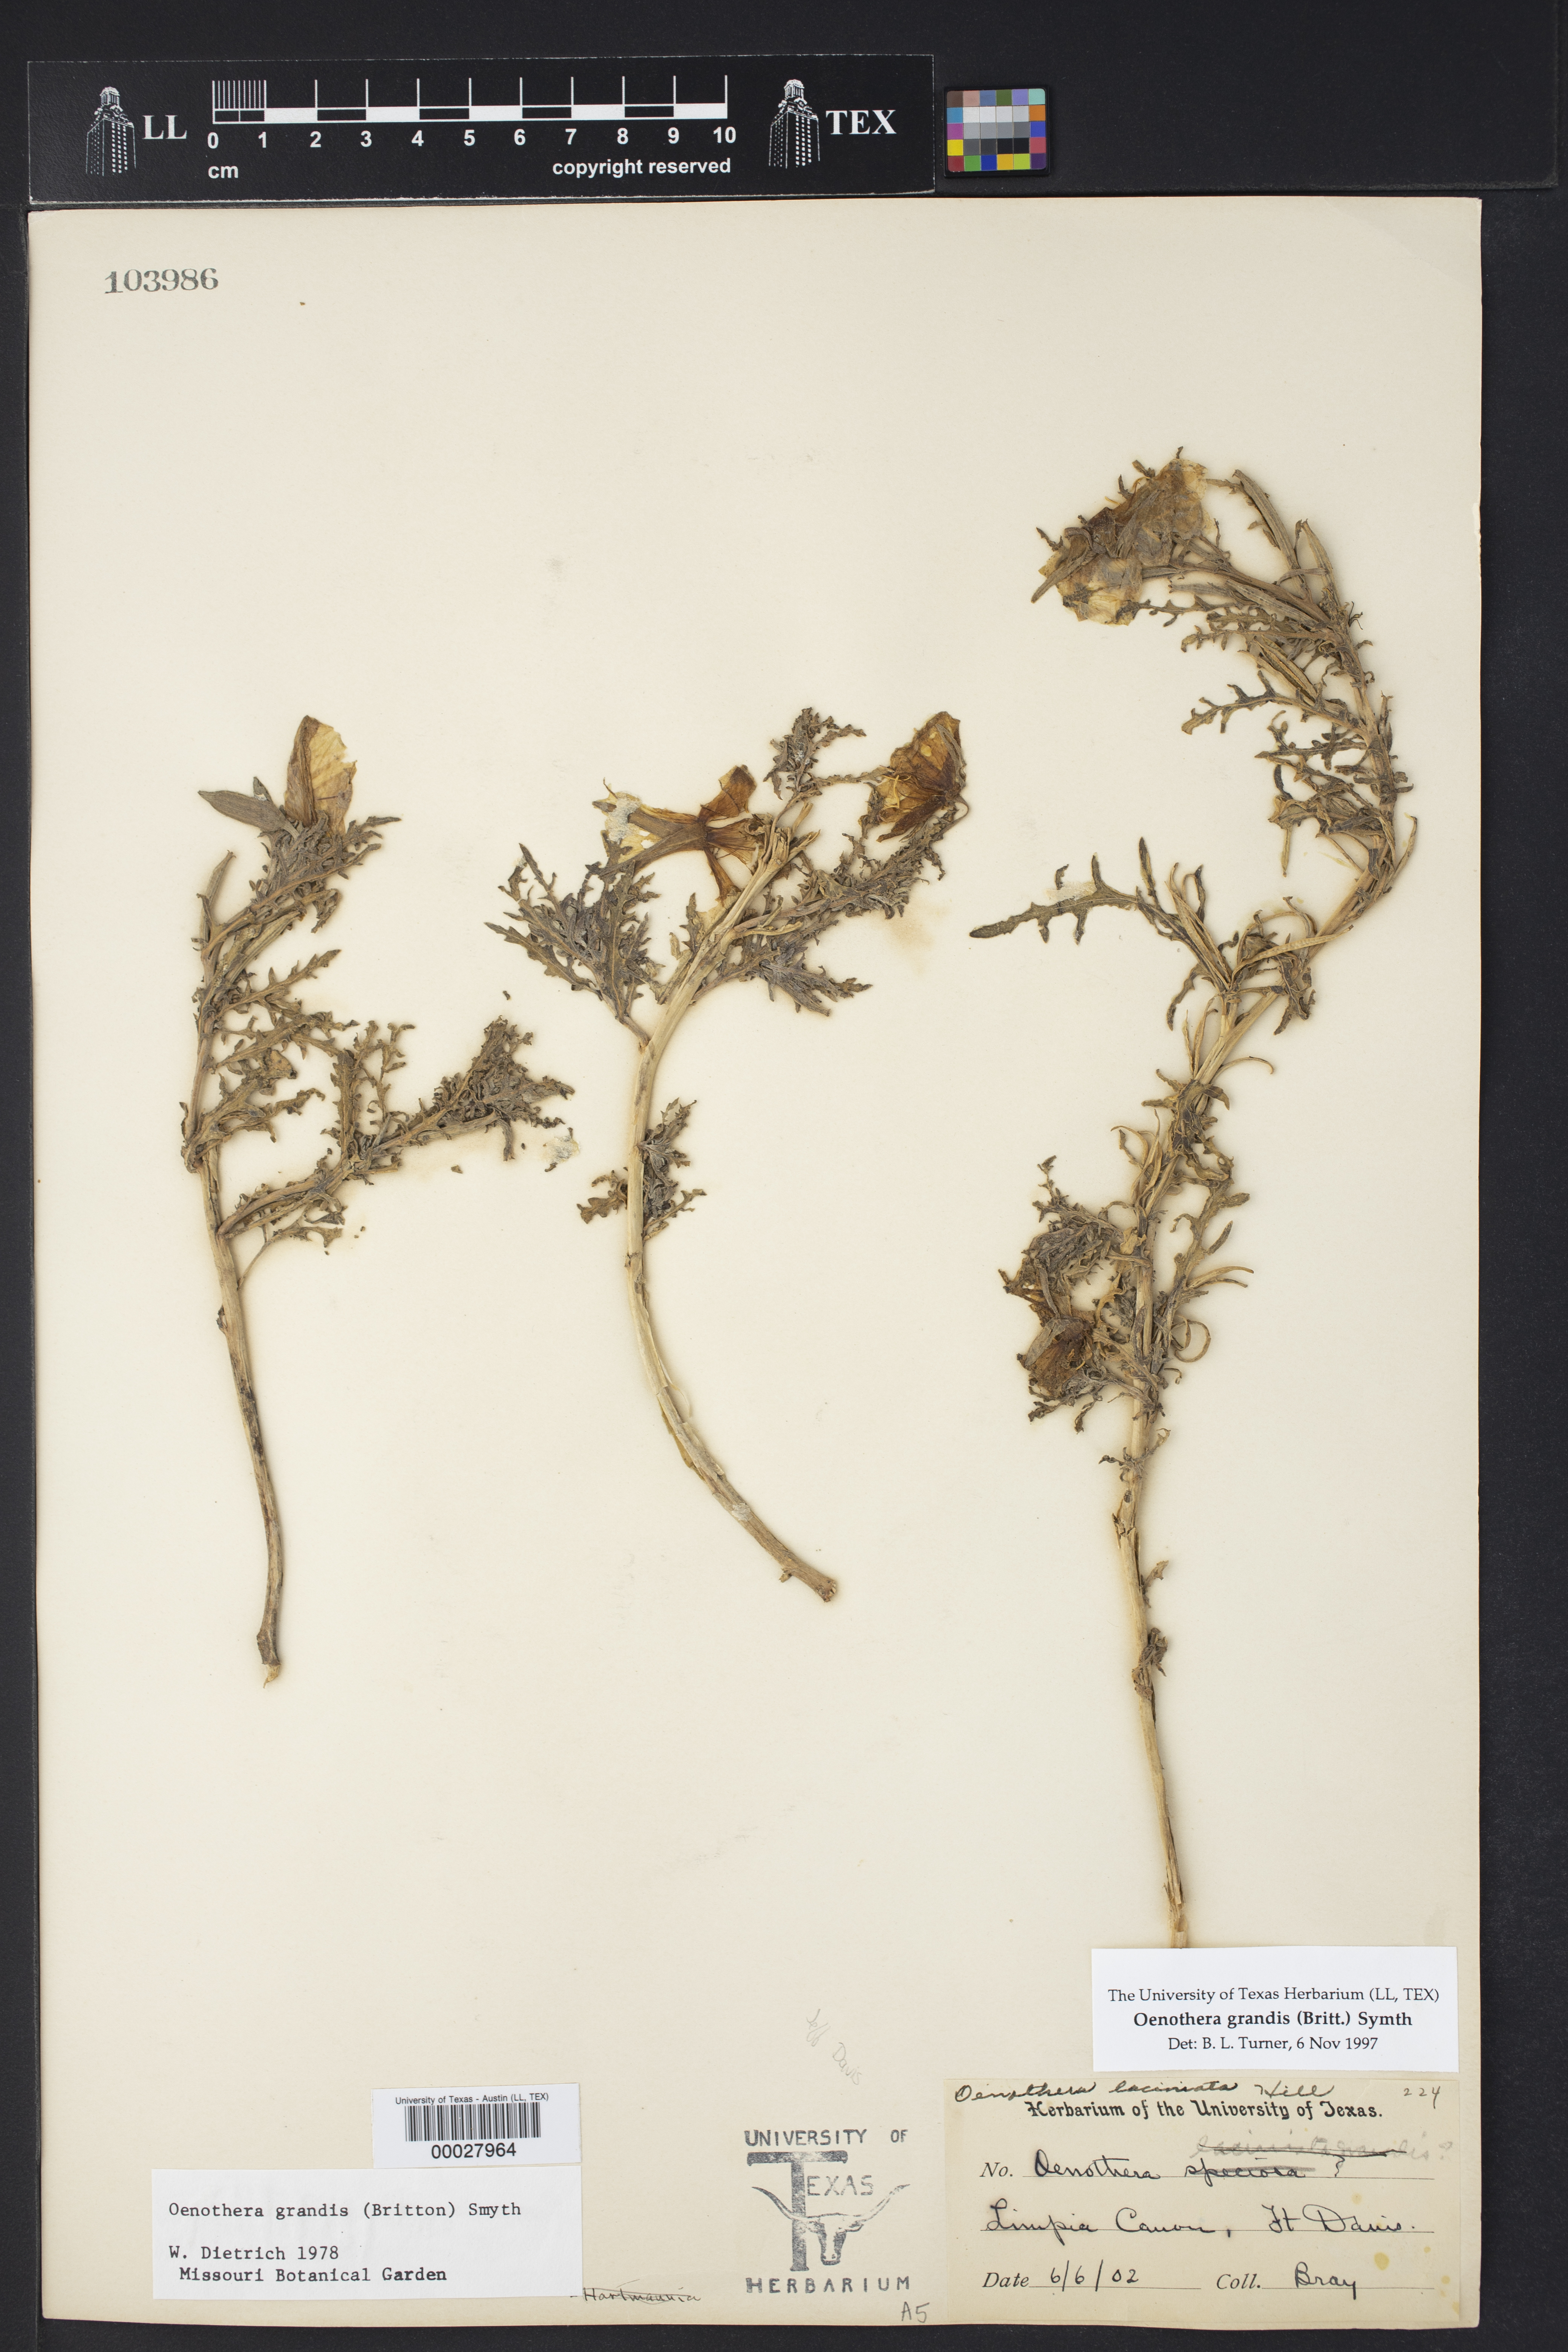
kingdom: Plantae
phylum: Tracheophyta
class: Magnoliopsida
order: Myrtales
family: Onagraceae
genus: Oenothera
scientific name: Oenothera grandis
